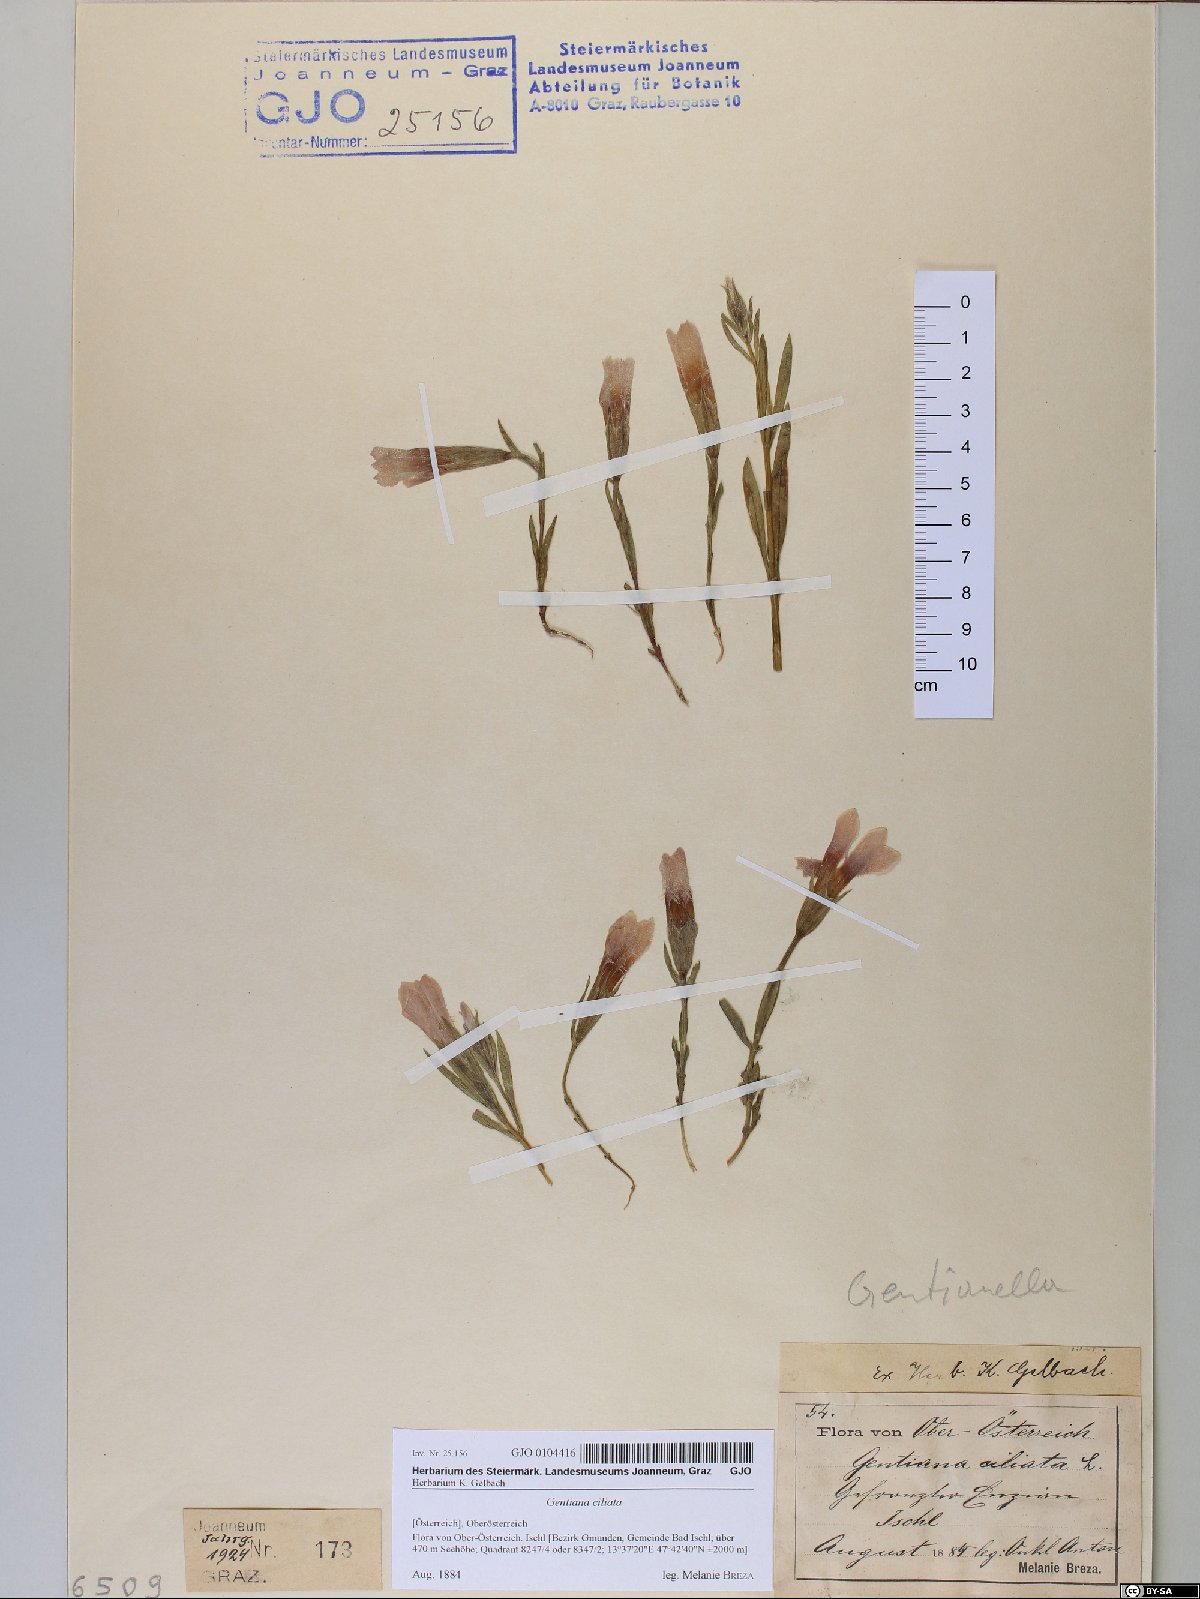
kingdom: Plantae
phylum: Tracheophyta
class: Magnoliopsida
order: Gentianales
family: Gentianaceae
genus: Gentianopsis
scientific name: Gentianopsis ciliata
